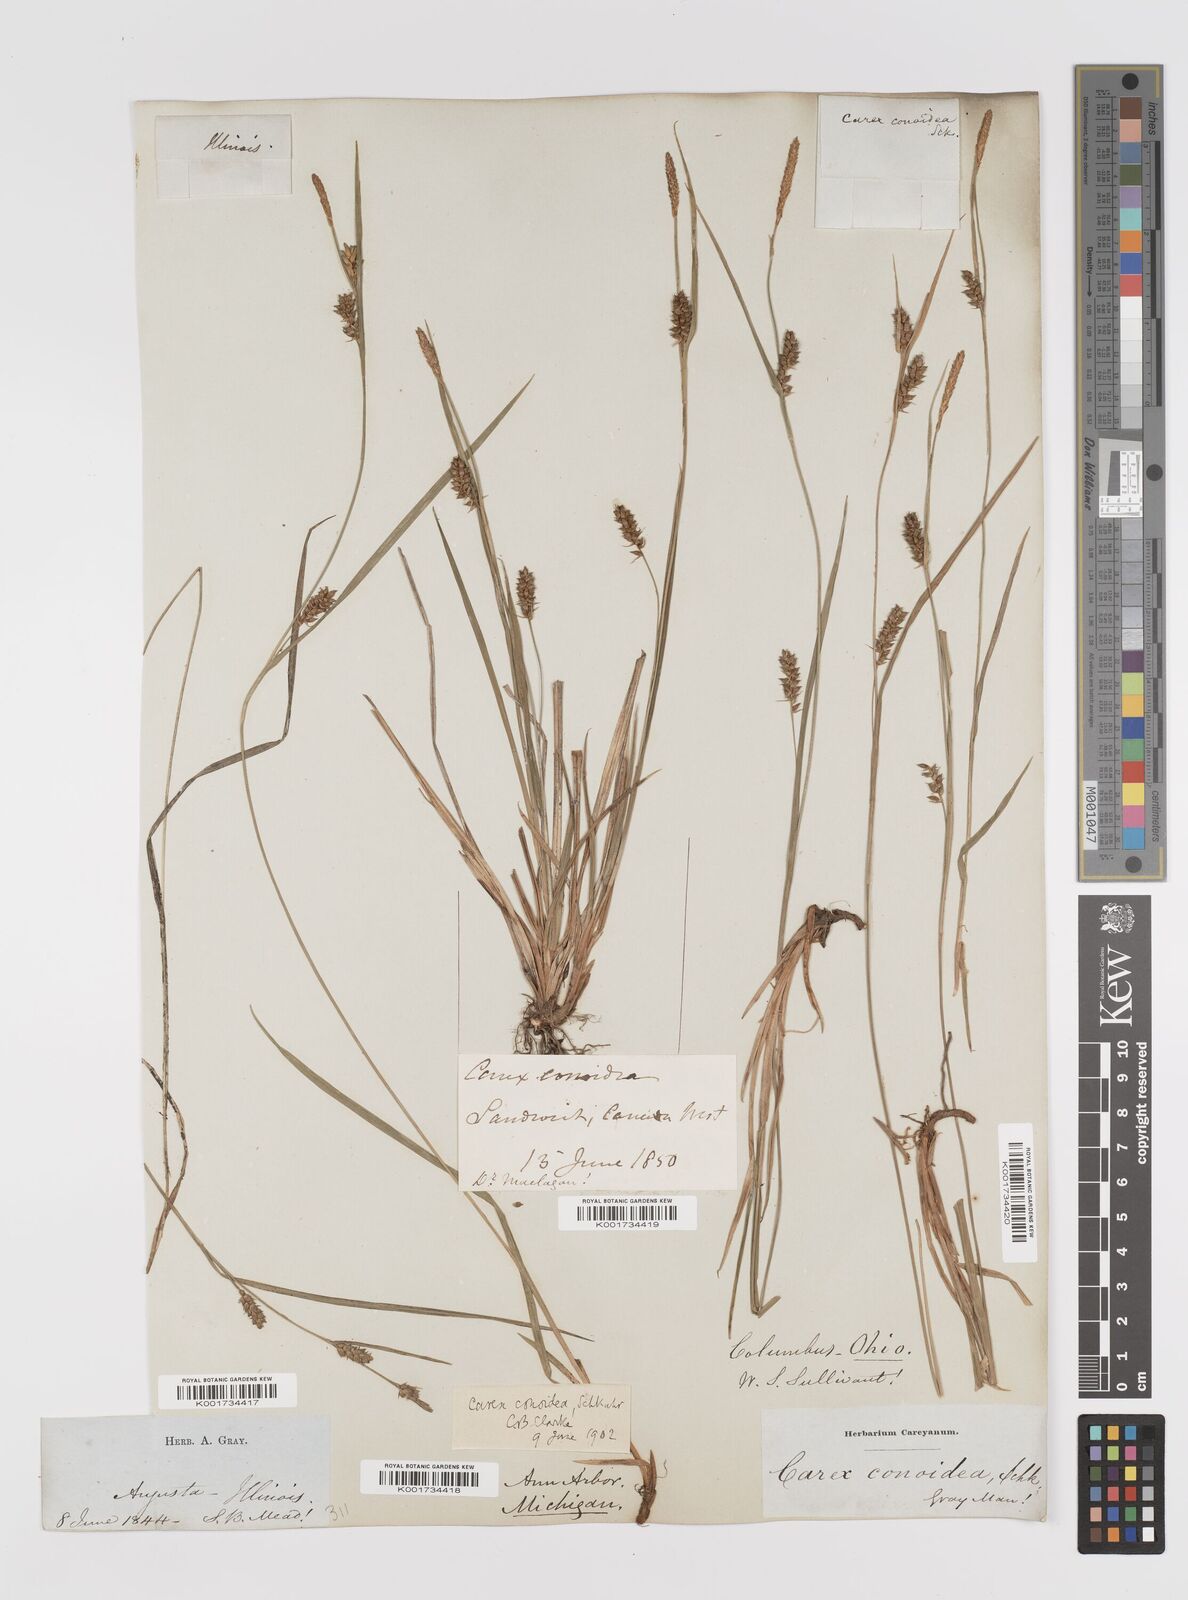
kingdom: Plantae
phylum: Tracheophyta
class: Liliopsida
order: Poales
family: Cyperaceae
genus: Carex
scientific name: Carex conoidea
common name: Cone shaped sedge
